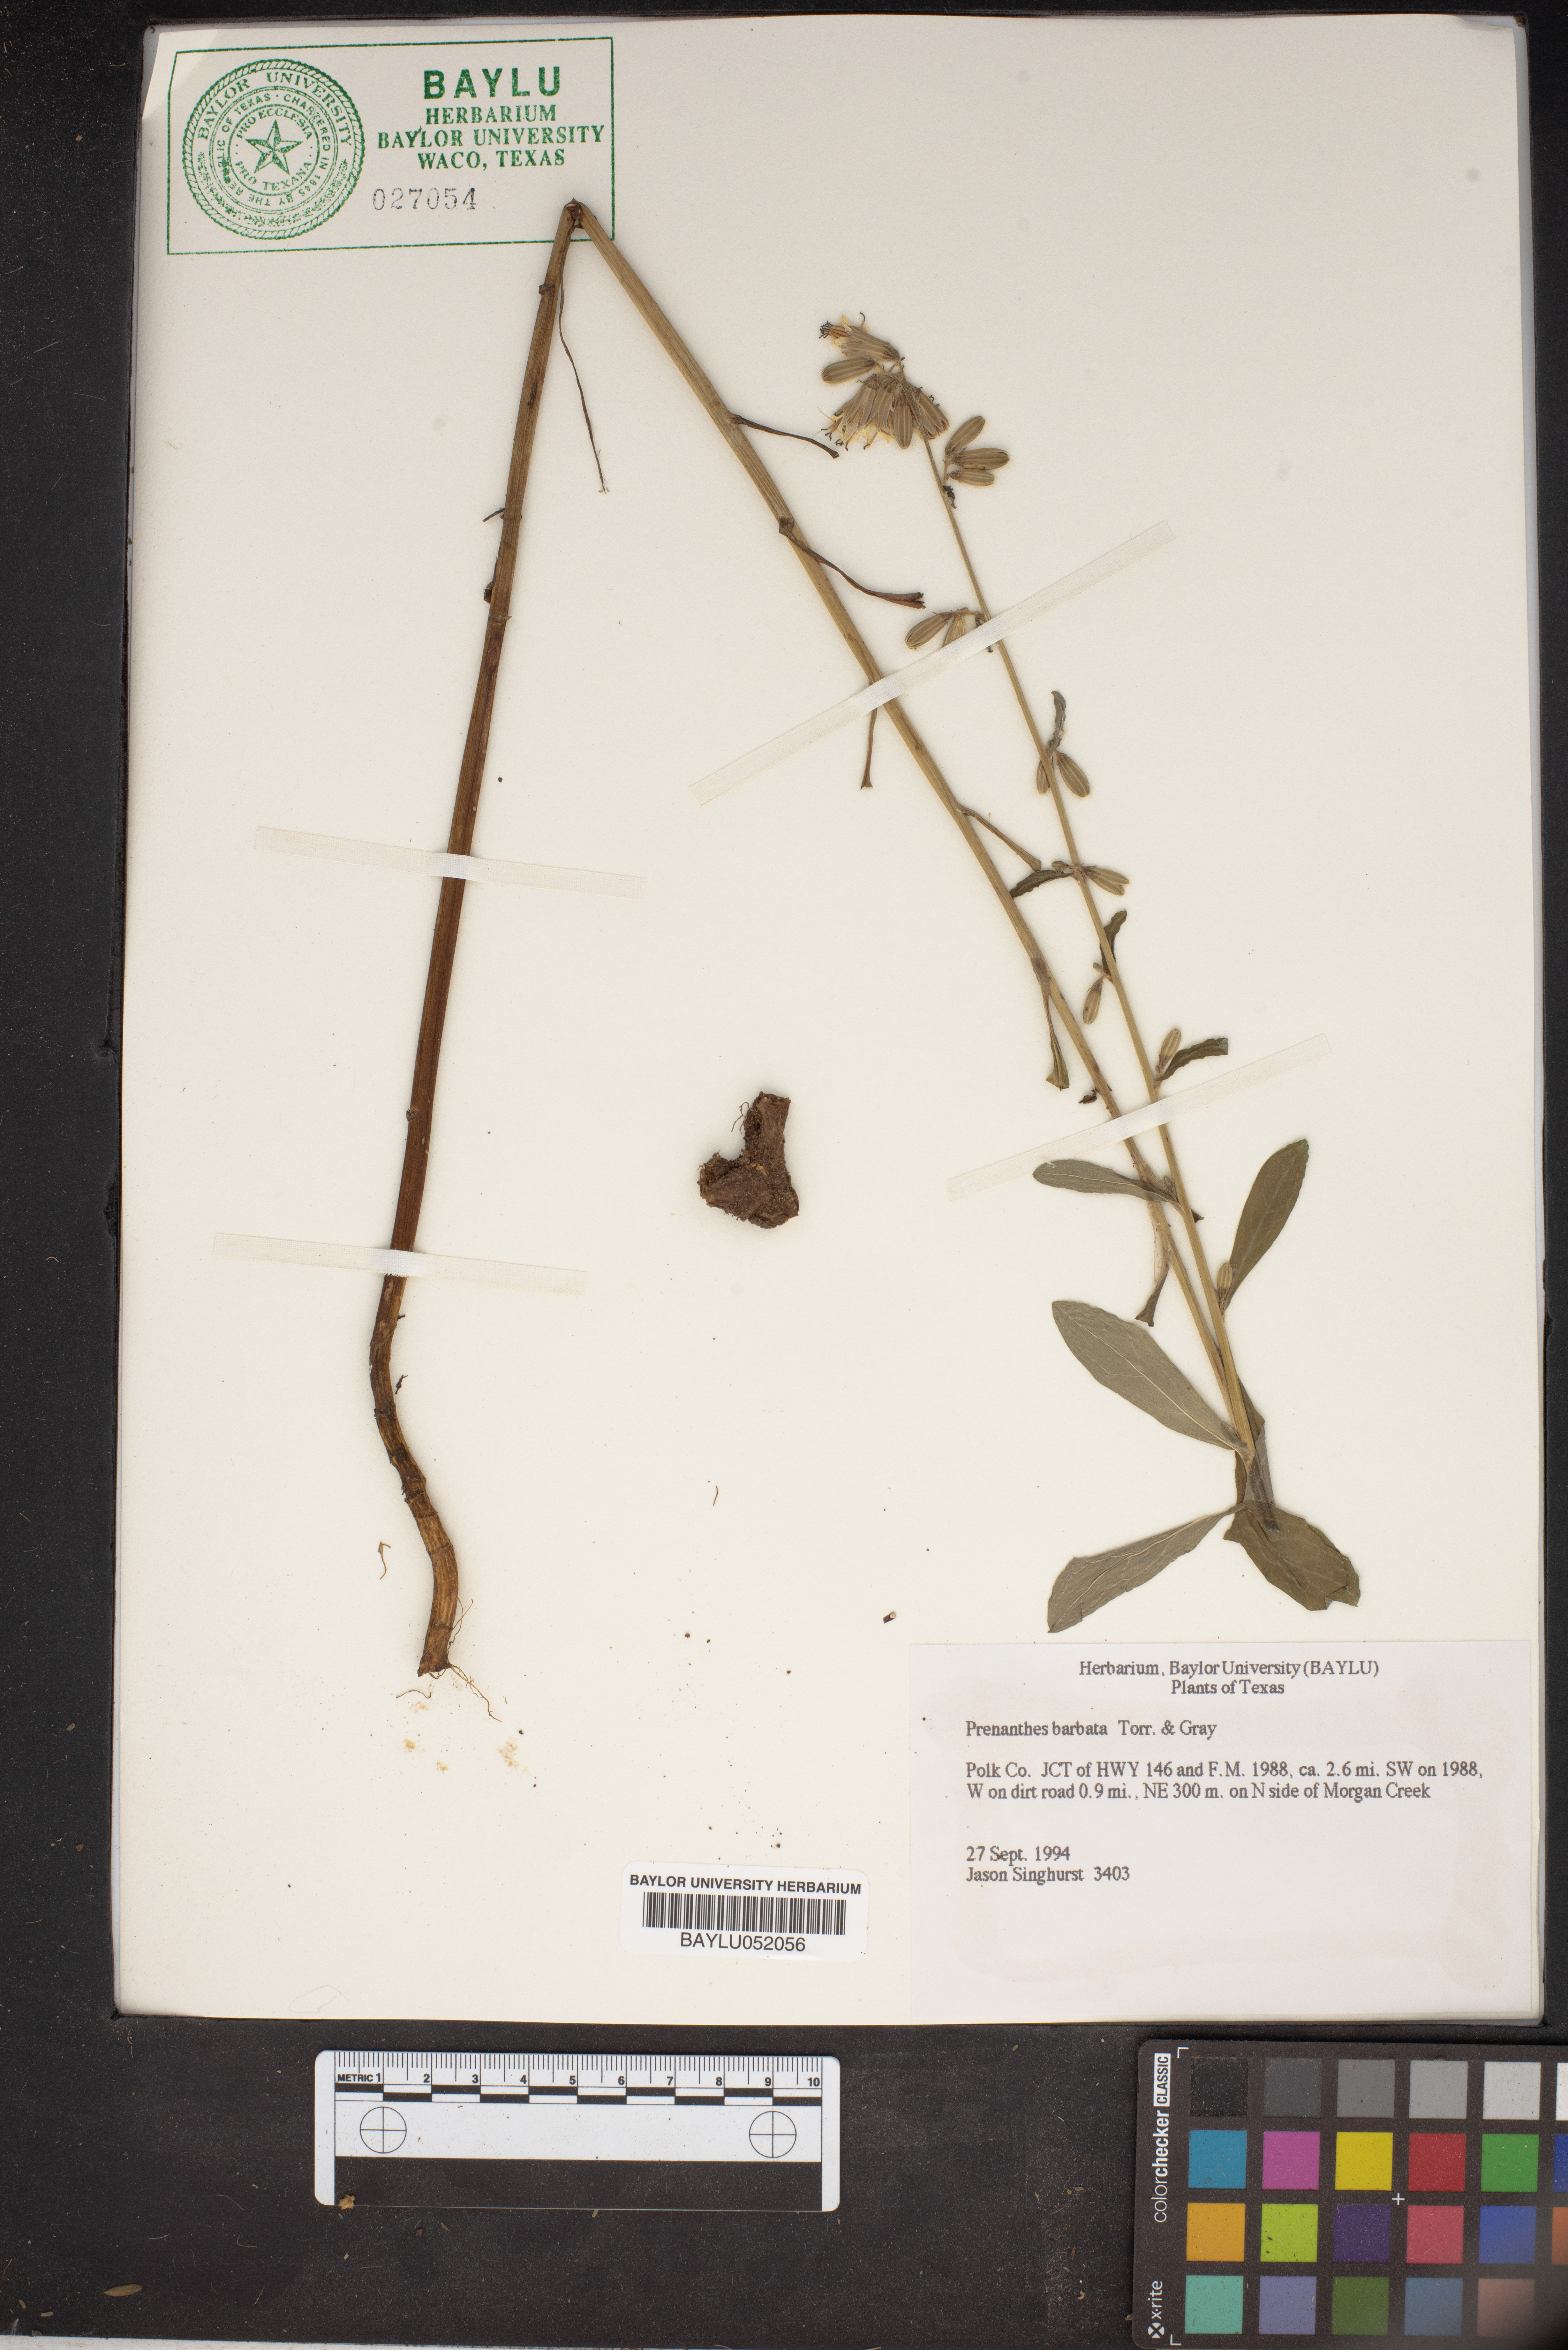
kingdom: Plantae
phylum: Tracheophyta
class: Magnoliopsida
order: Asterales
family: Asteraceae
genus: Nabalus
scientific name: Nabalus barbata
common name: Barbed rattlesnakeroot
